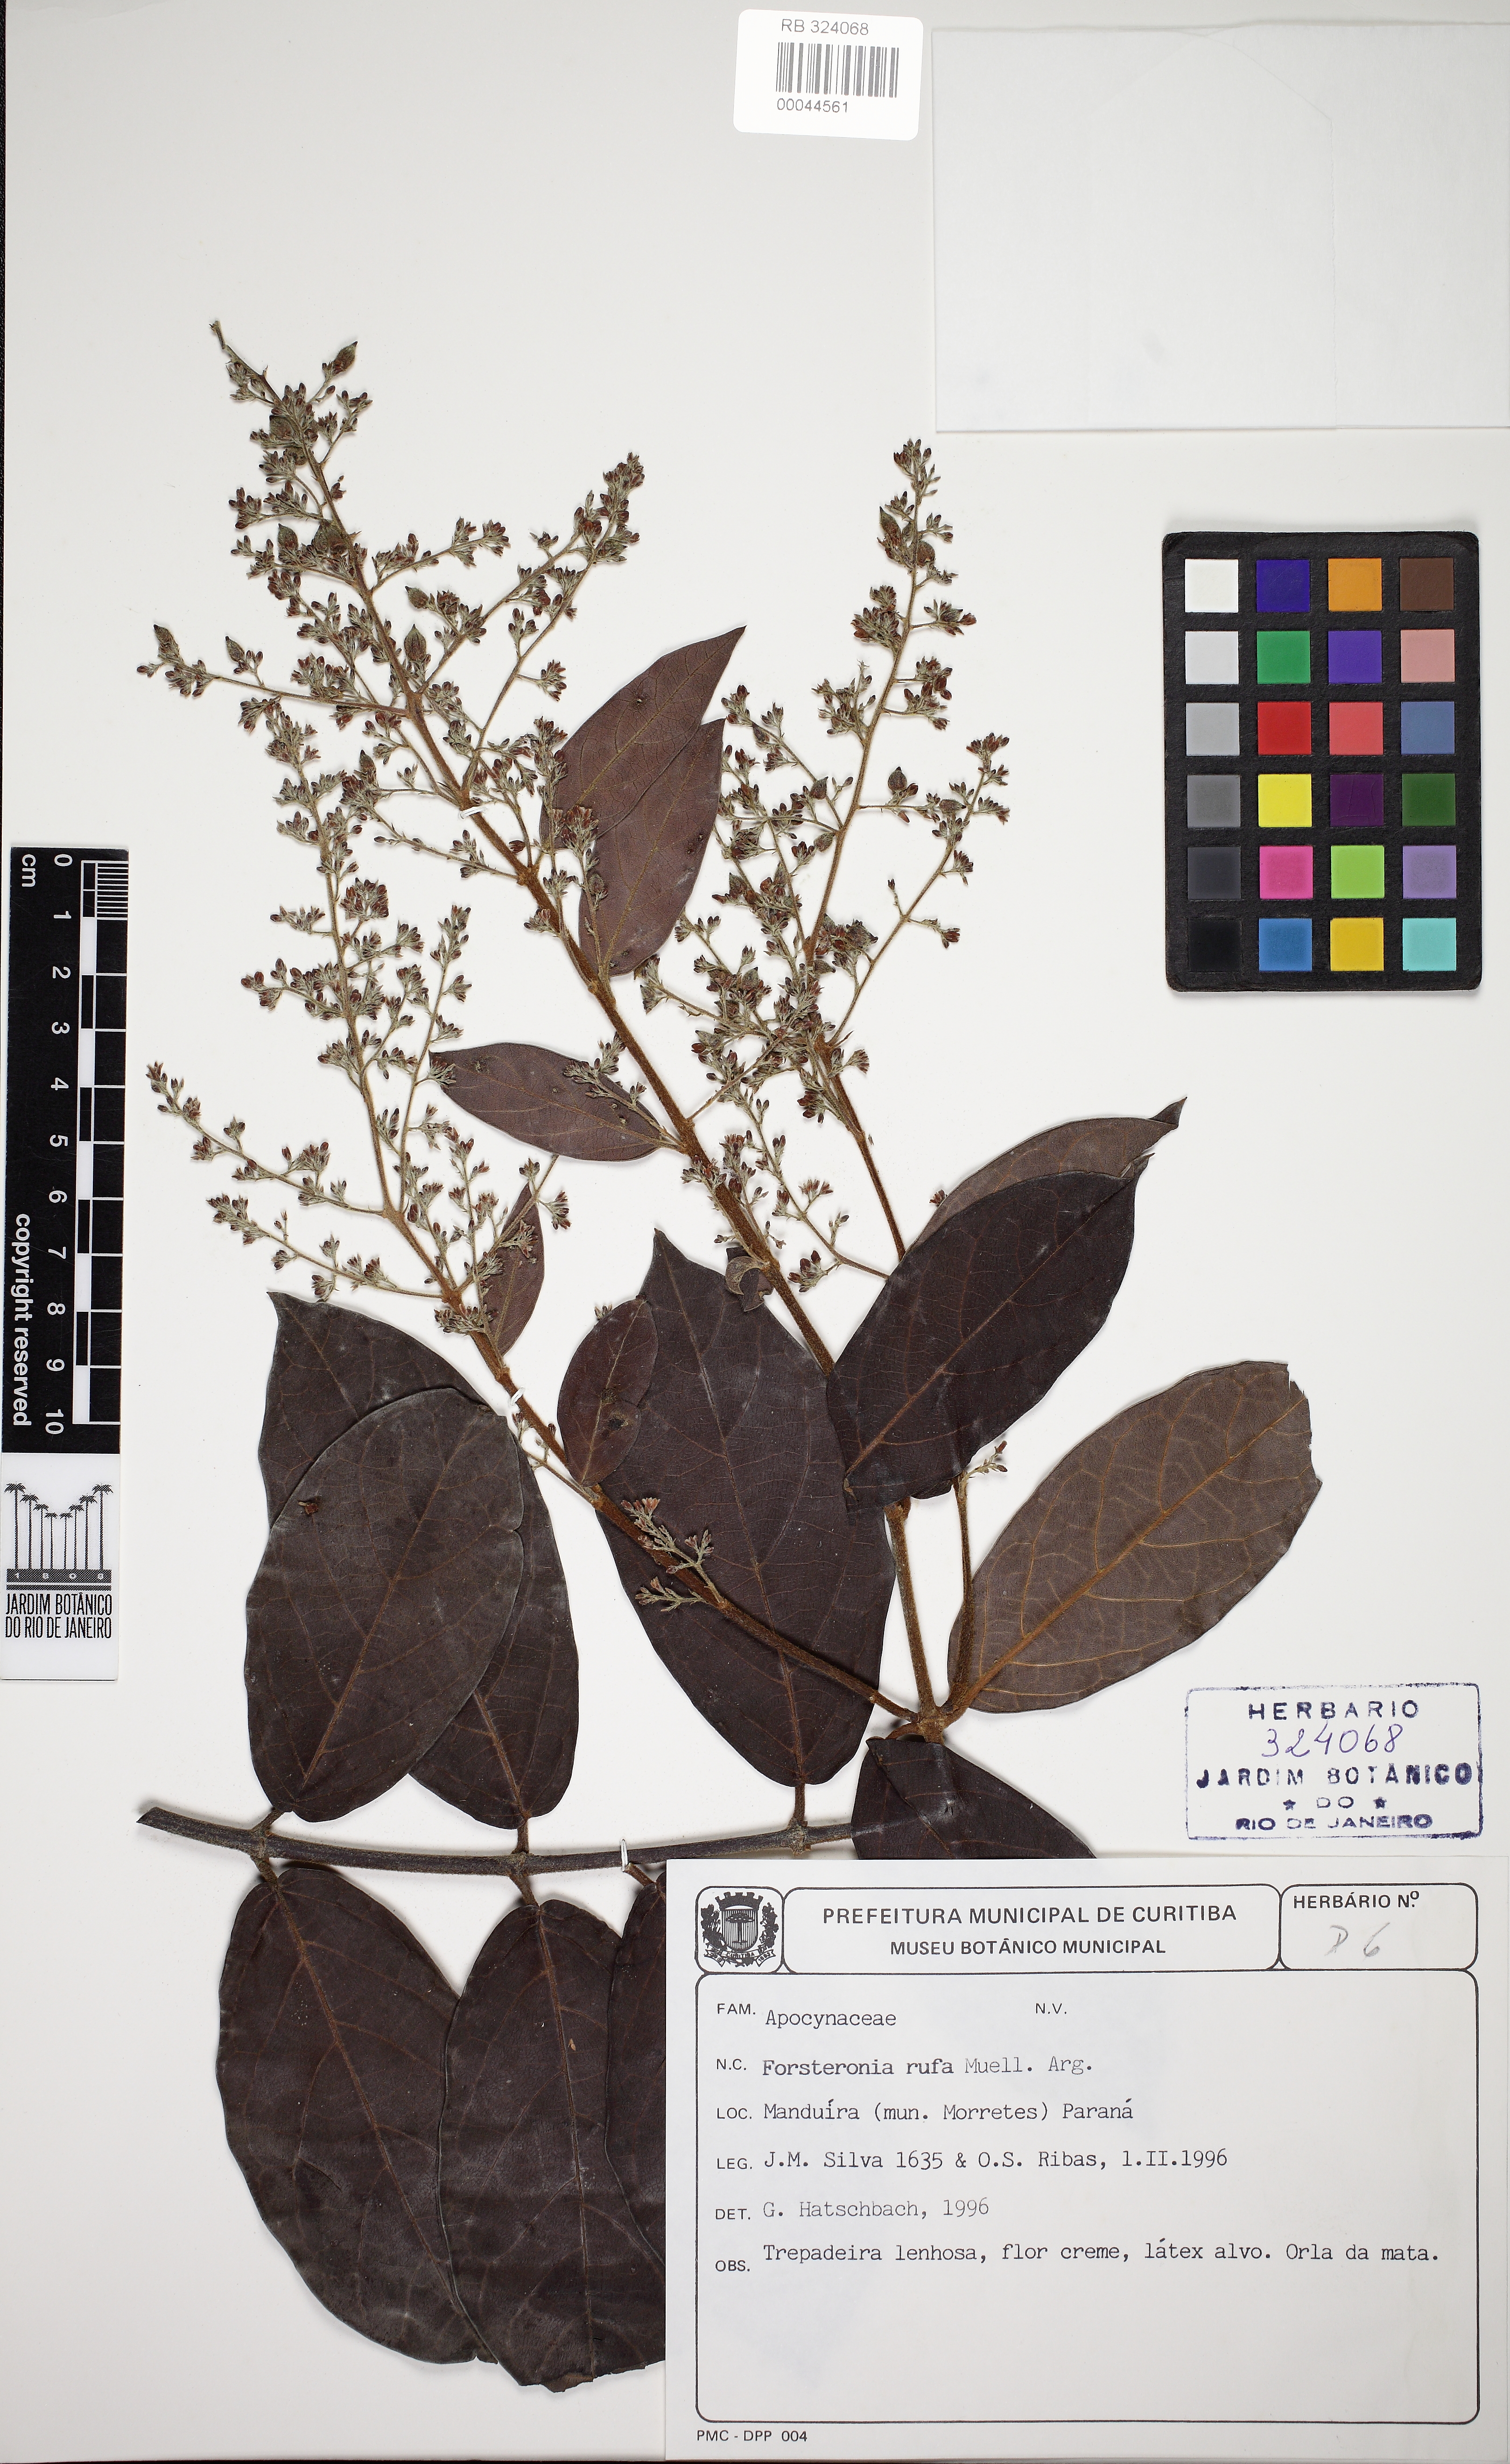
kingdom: Plantae
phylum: Tracheophyta
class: Magnoliopsida
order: Gentianales
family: Apocynaceae
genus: Forsteronia
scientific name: Forsteronia rufa
